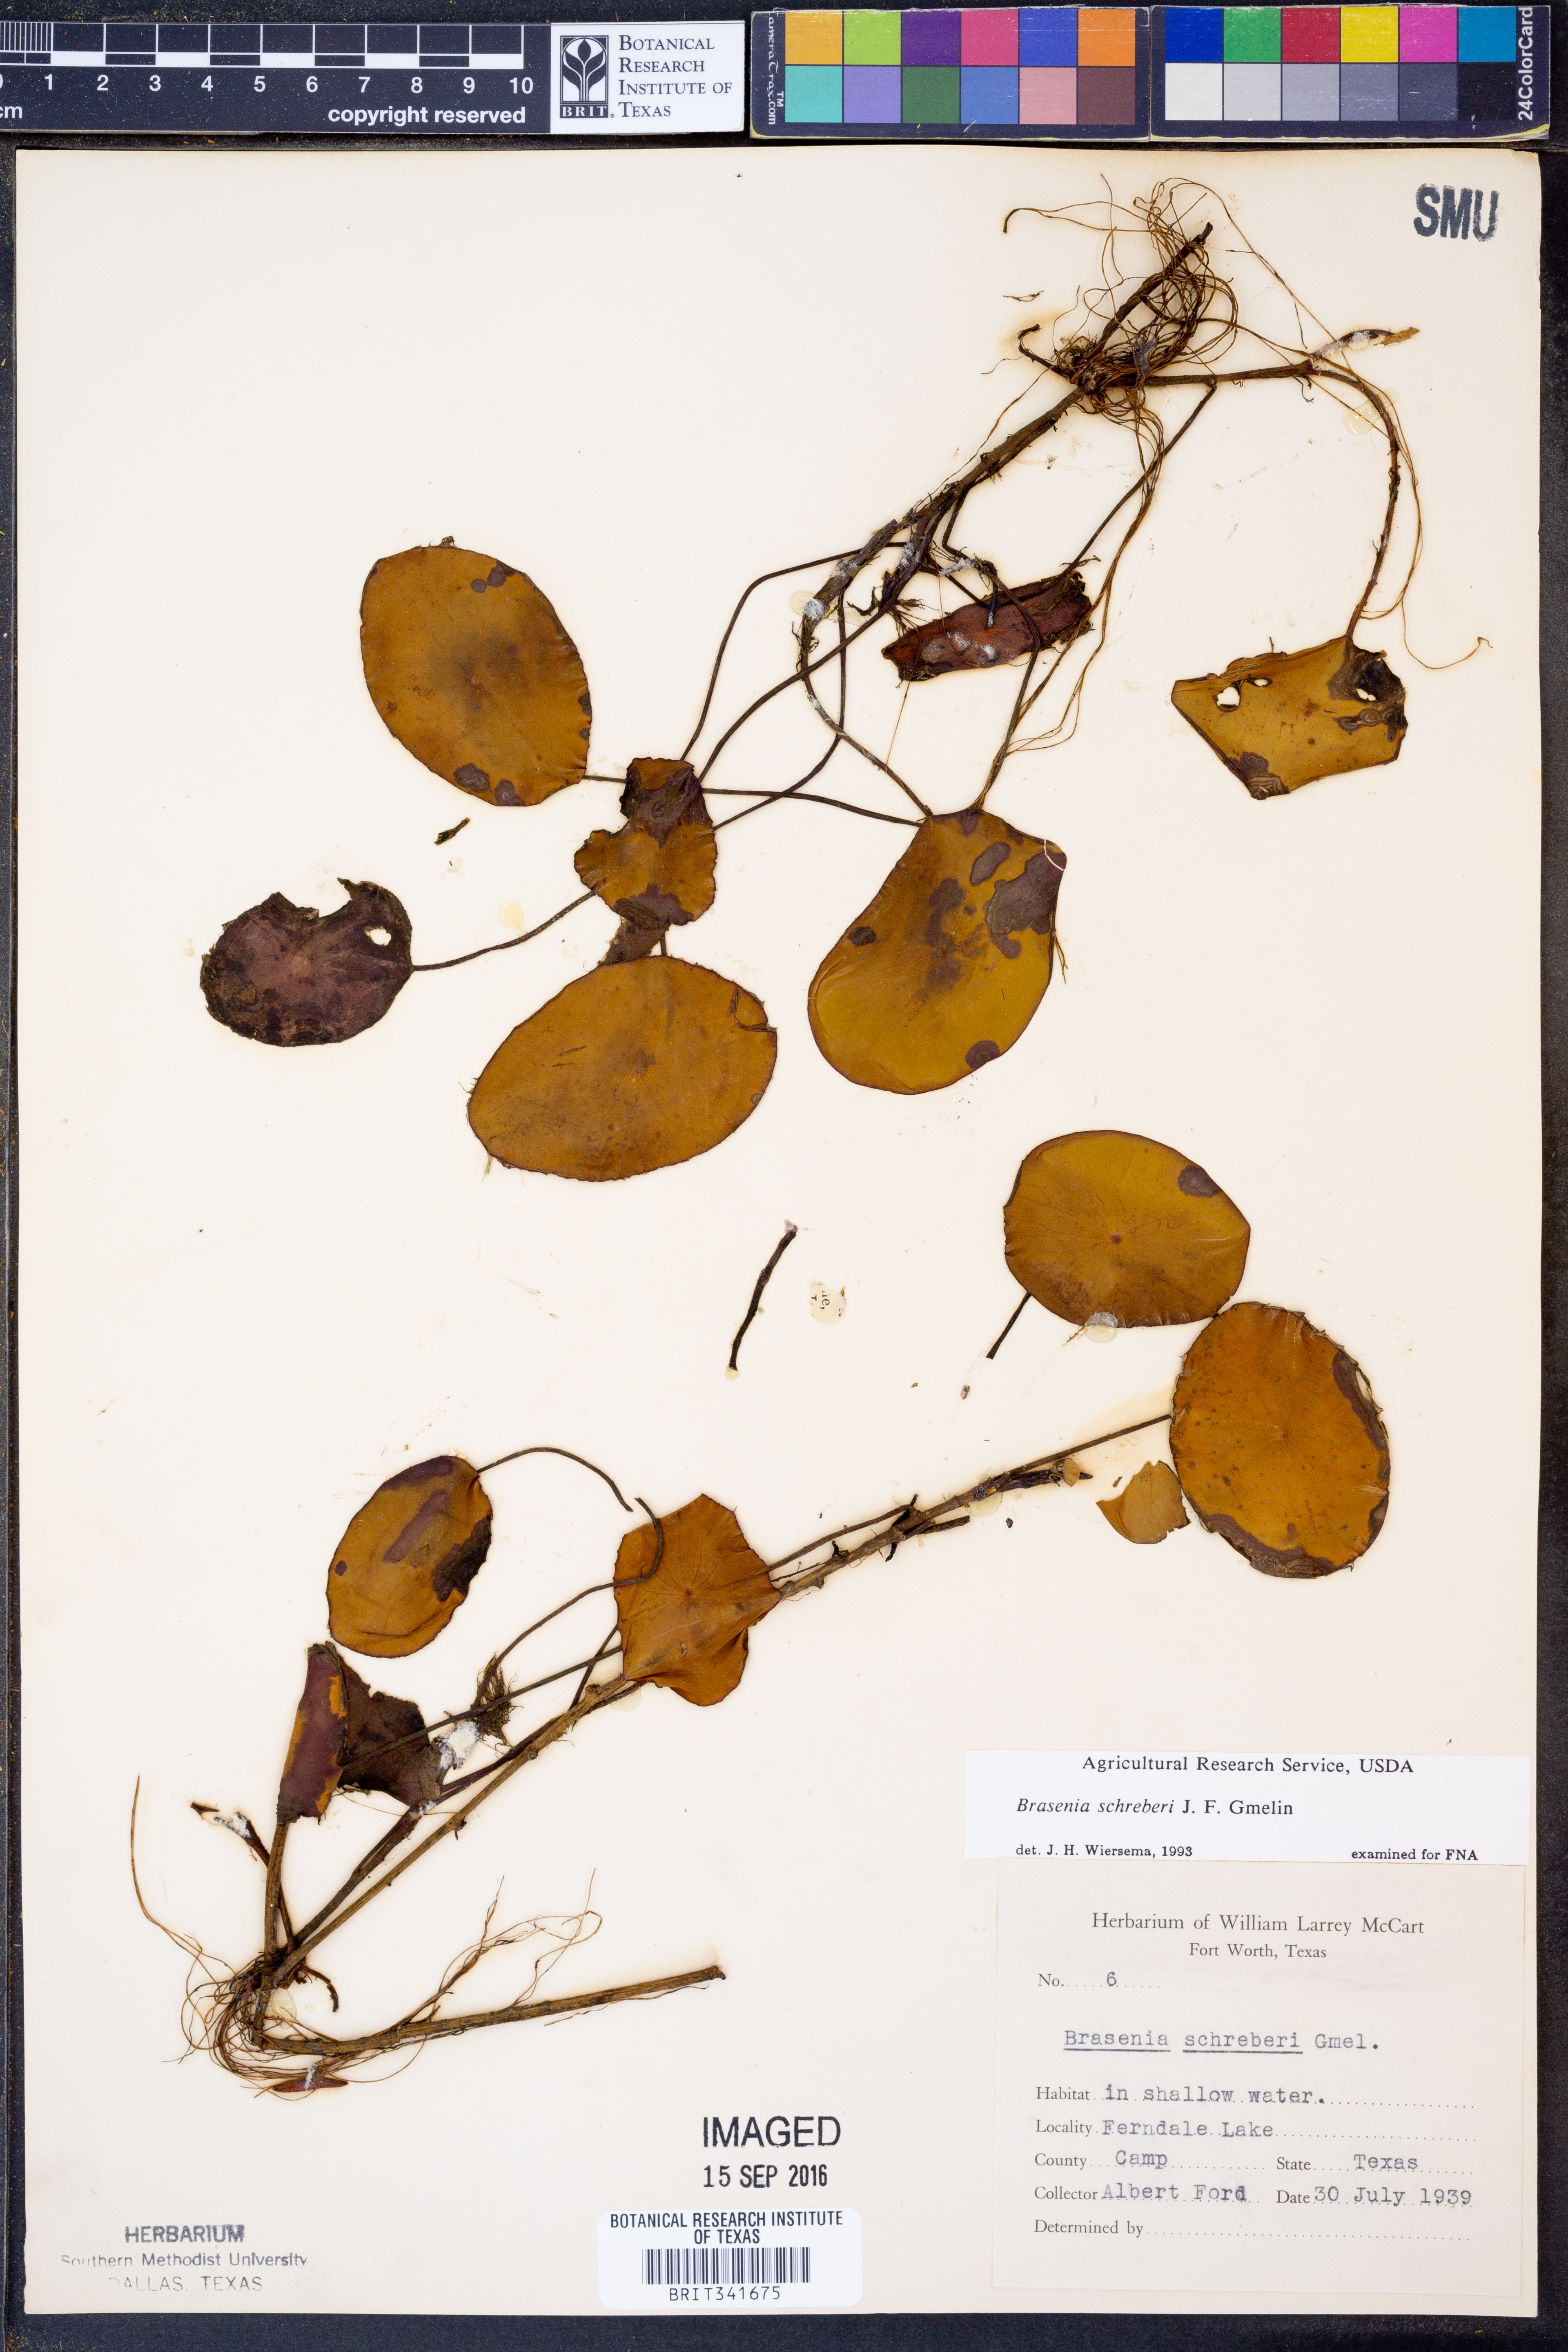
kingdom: Plantae
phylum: Tracheophyta
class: Magnoliopsida
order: Nymphaeales
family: Cabombaceae
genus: Brasenia
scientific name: Brasenia schreberi
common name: Water-shield
